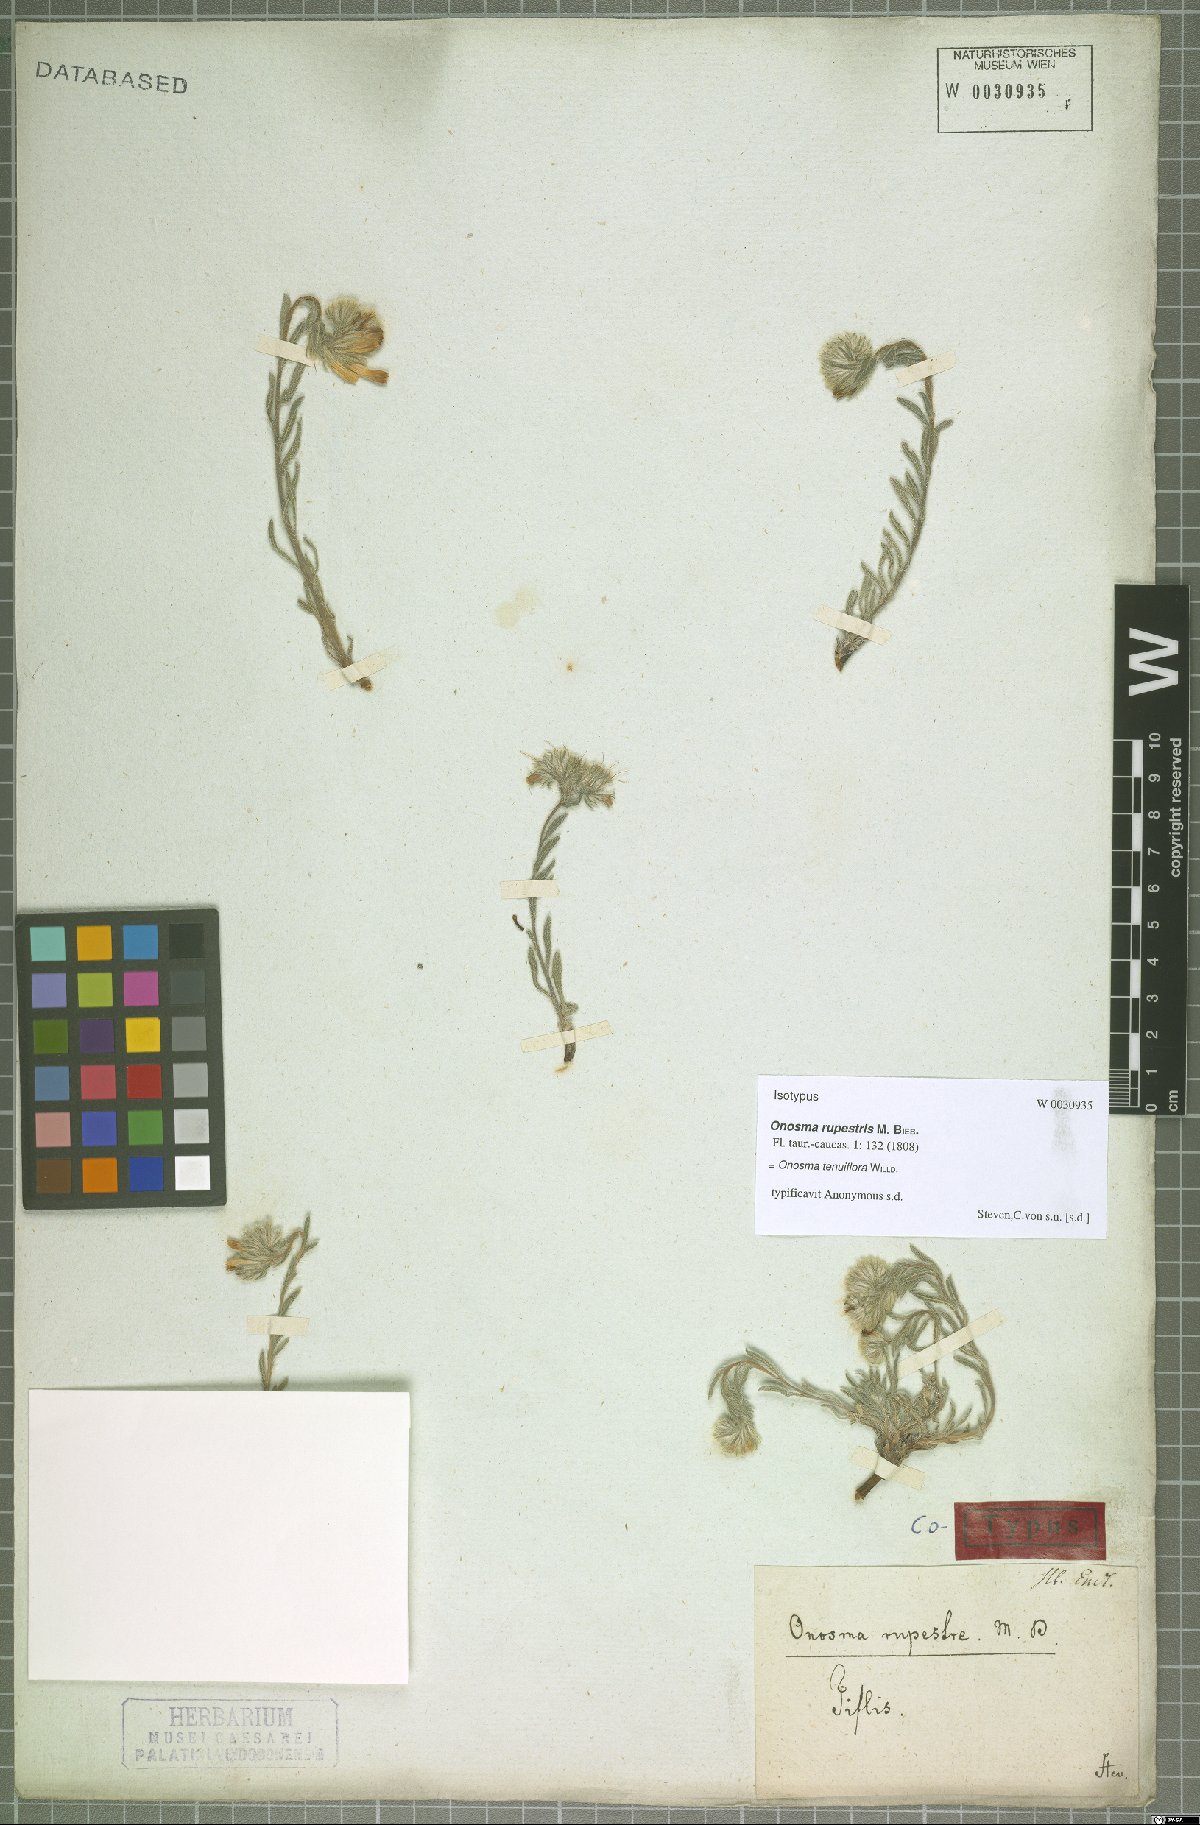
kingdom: Plantae
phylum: Tracheophyta
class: Magnoliopsida
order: Boraginales
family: Boraginaceae
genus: Onosma
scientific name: Onosma tenuiflora
